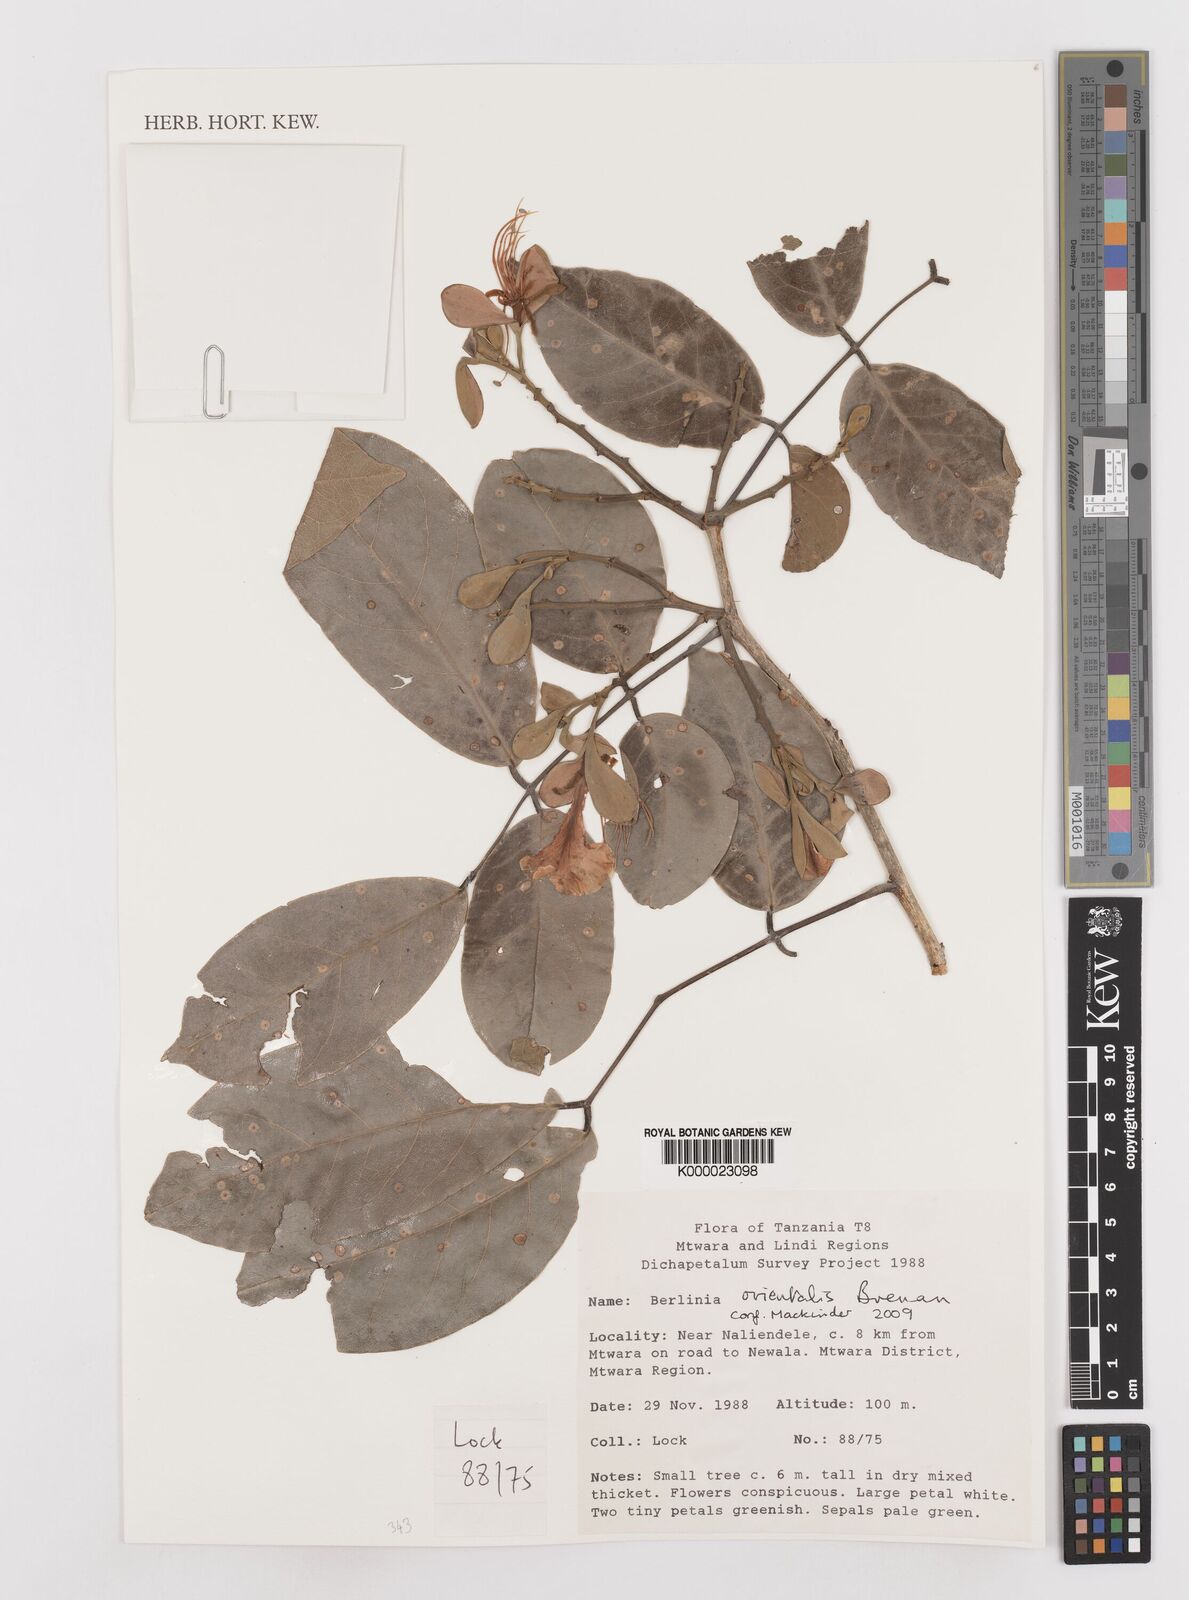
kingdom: Plantae
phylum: Tracheophyta
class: Magnoliopsida
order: Fabales
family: Fabaceae
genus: Berlinia
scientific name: Berlinia orientalis
